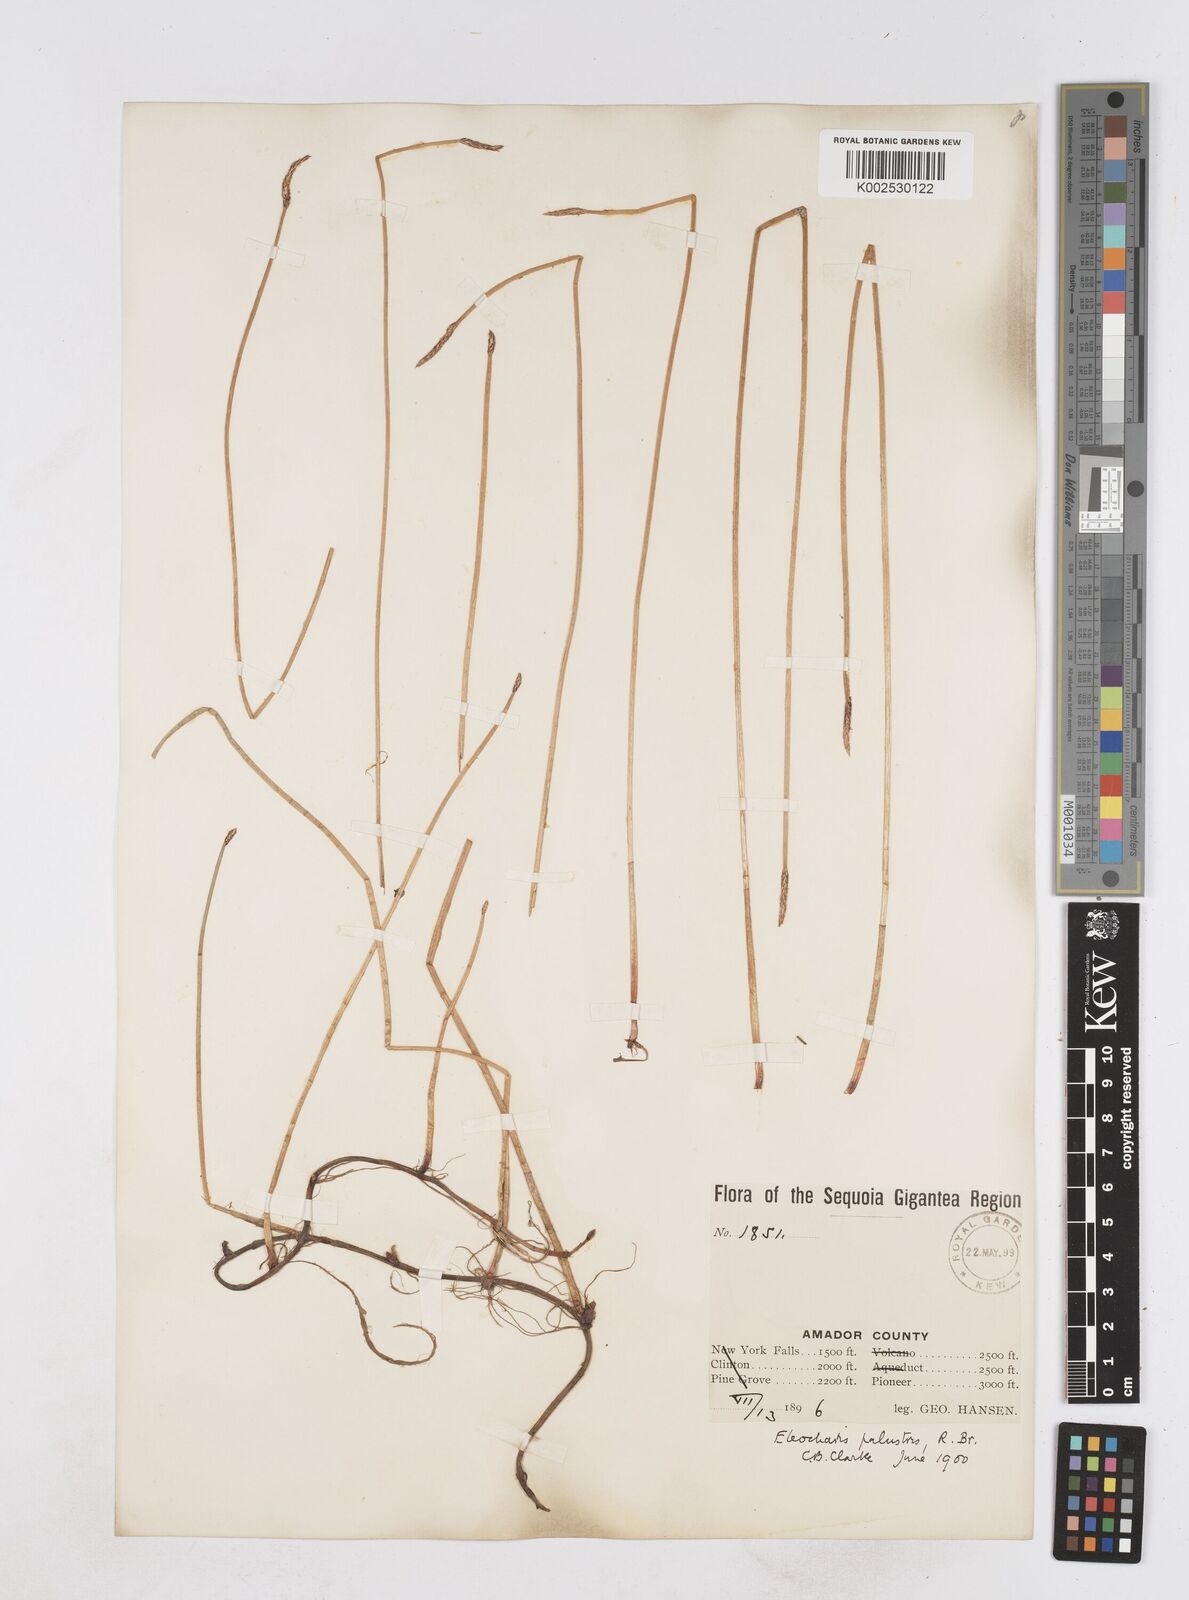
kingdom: Plantae
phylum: Tracheophyta
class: Liliopsida
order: Poales
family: Cyperaceae
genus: Eleocharis
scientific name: Eleocharis macrostachya
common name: Pale spikerush
